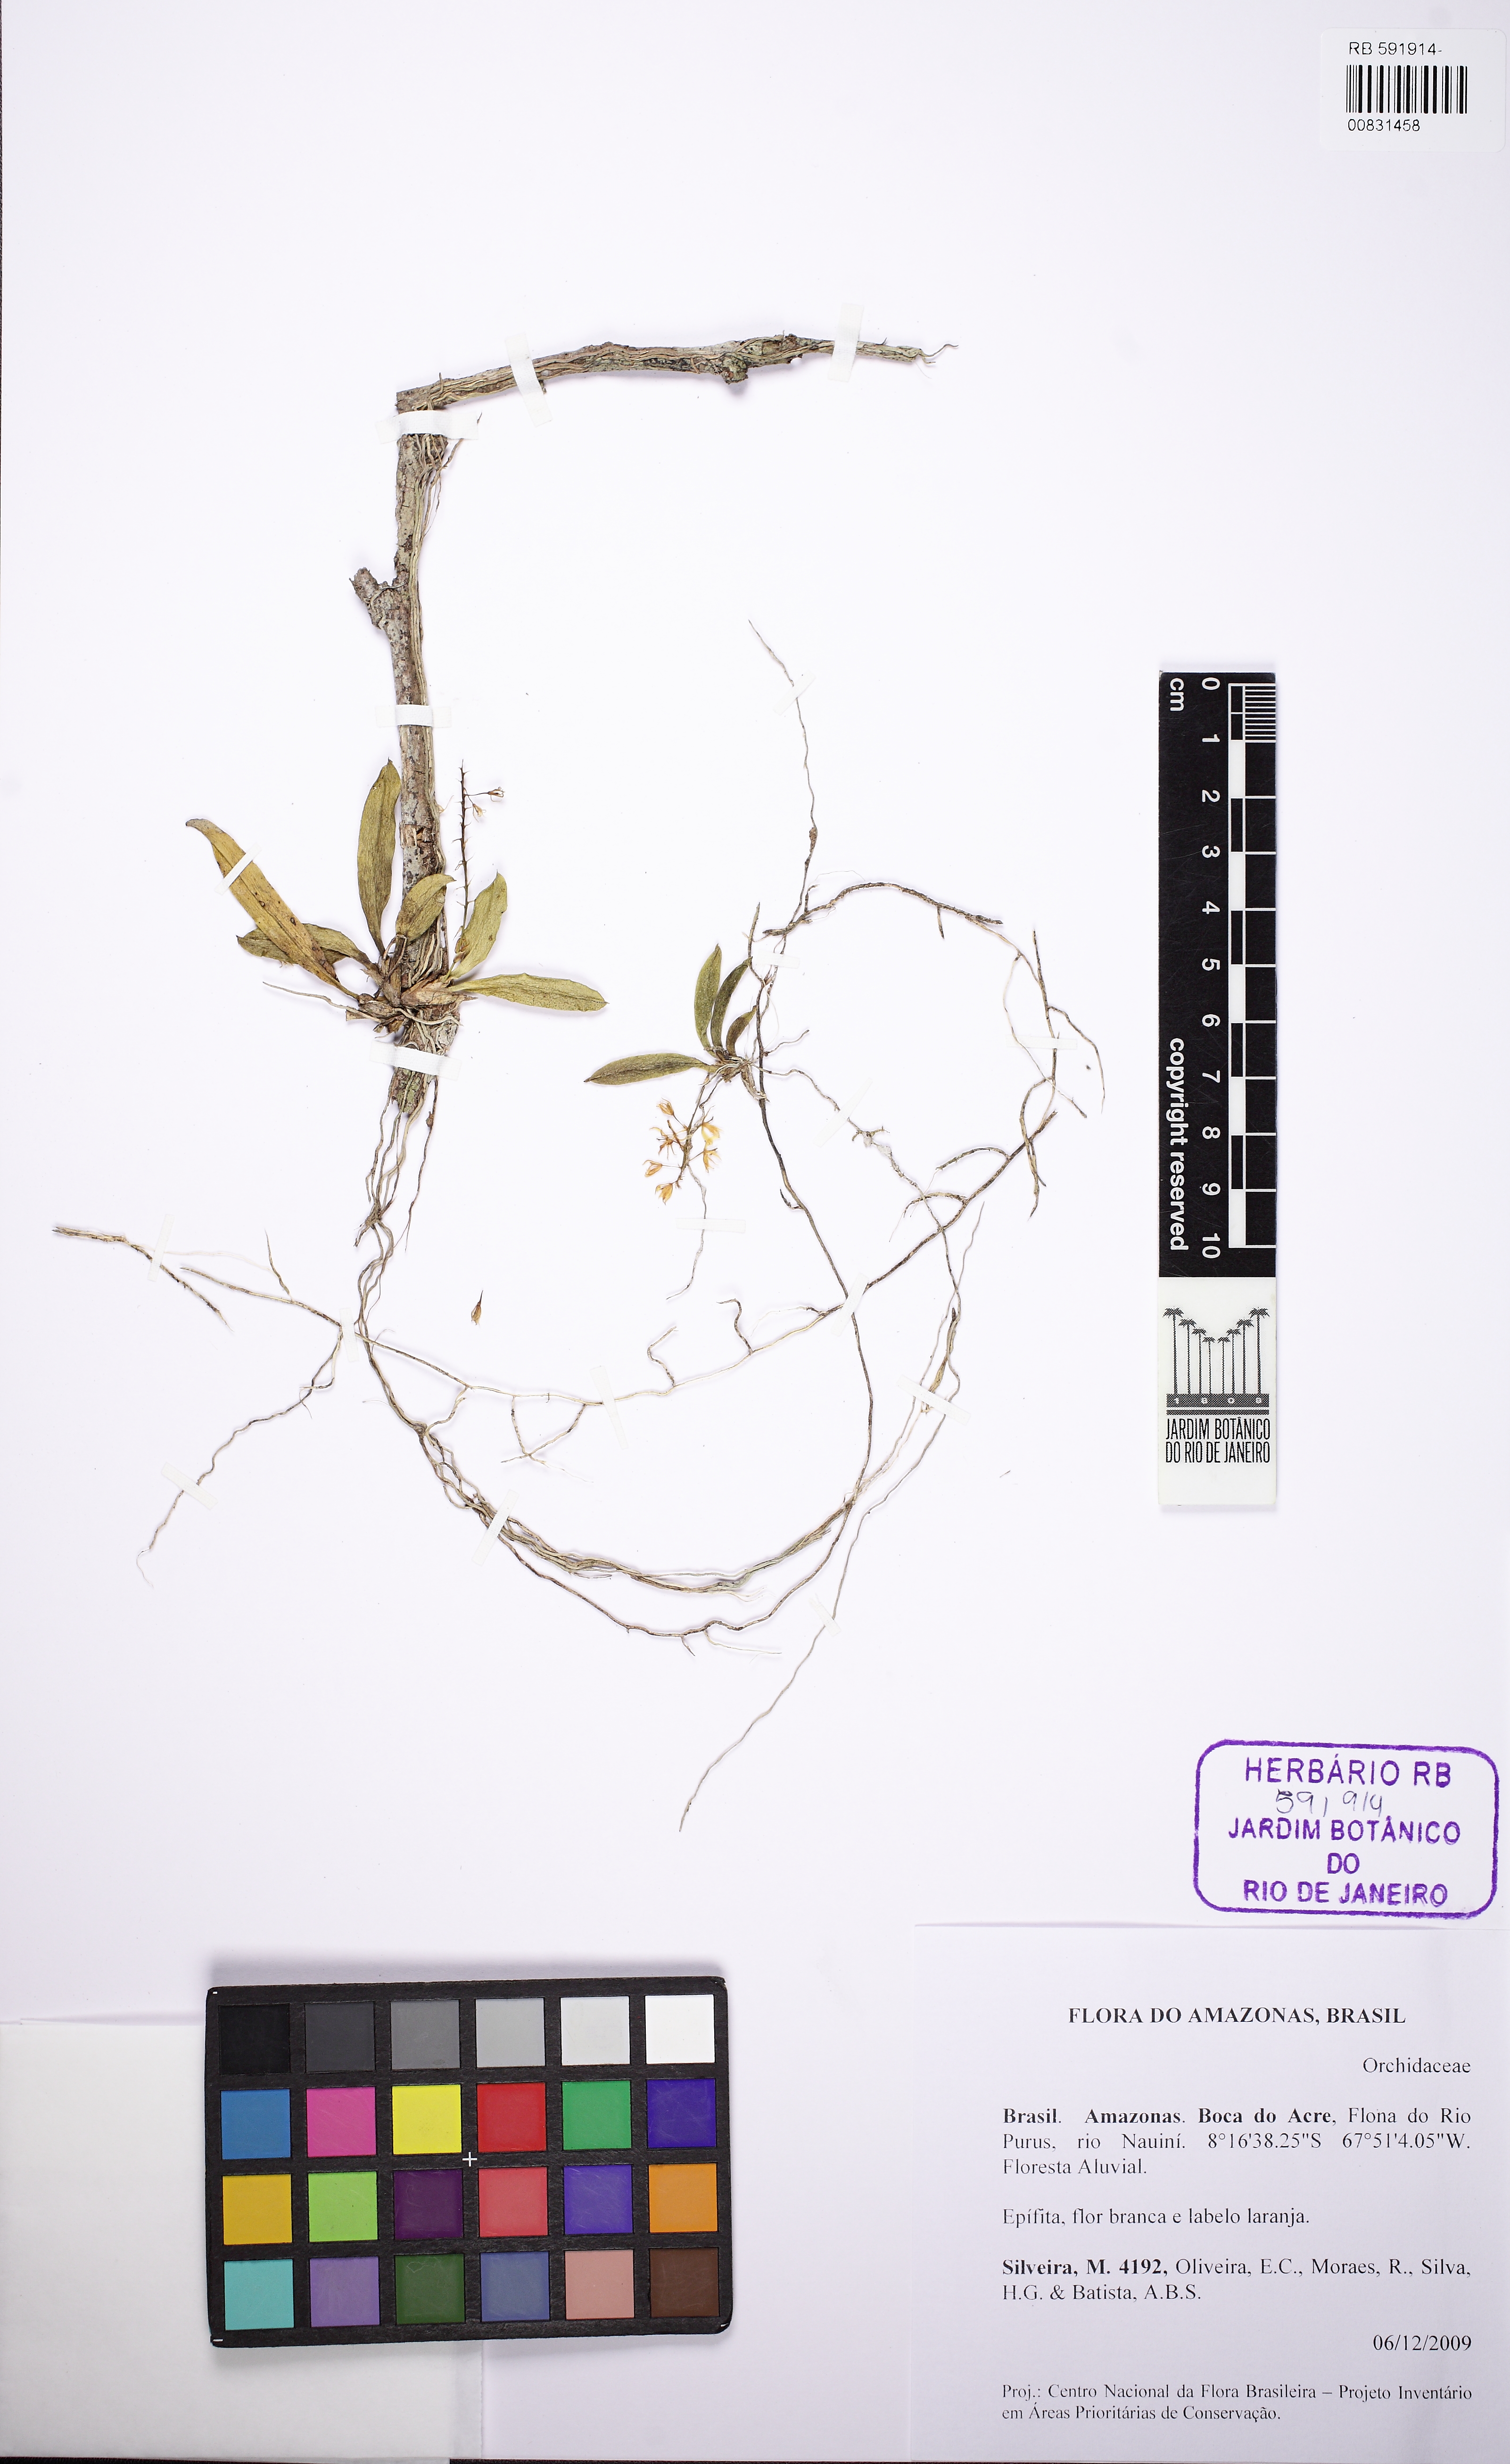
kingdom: Plantae
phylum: Tracheophyta
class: Liliopsida
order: Asparagales
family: Orchidaceae
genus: Notylia
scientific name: Notylia
